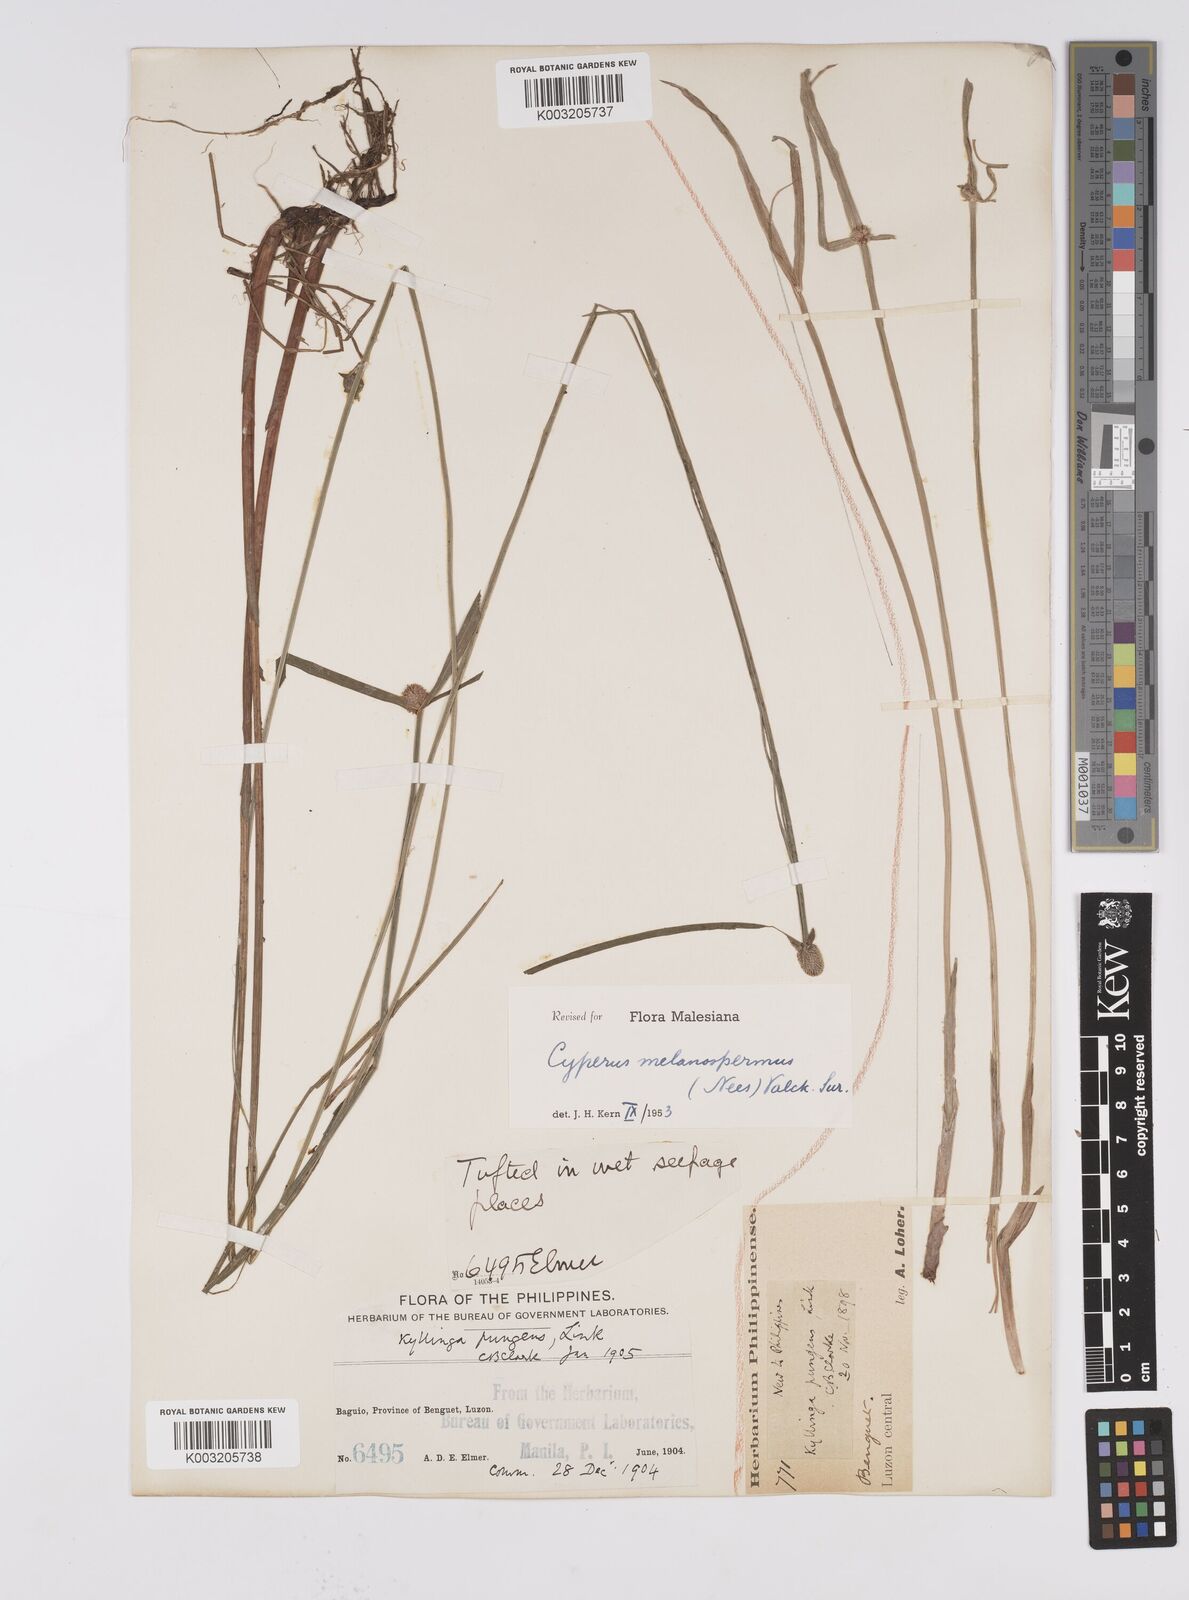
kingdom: Plantae
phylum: Tracheophyta
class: Liliopsida
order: Poales
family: Cyperaceae
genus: Cyperus
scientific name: Cyperus melanospermus
